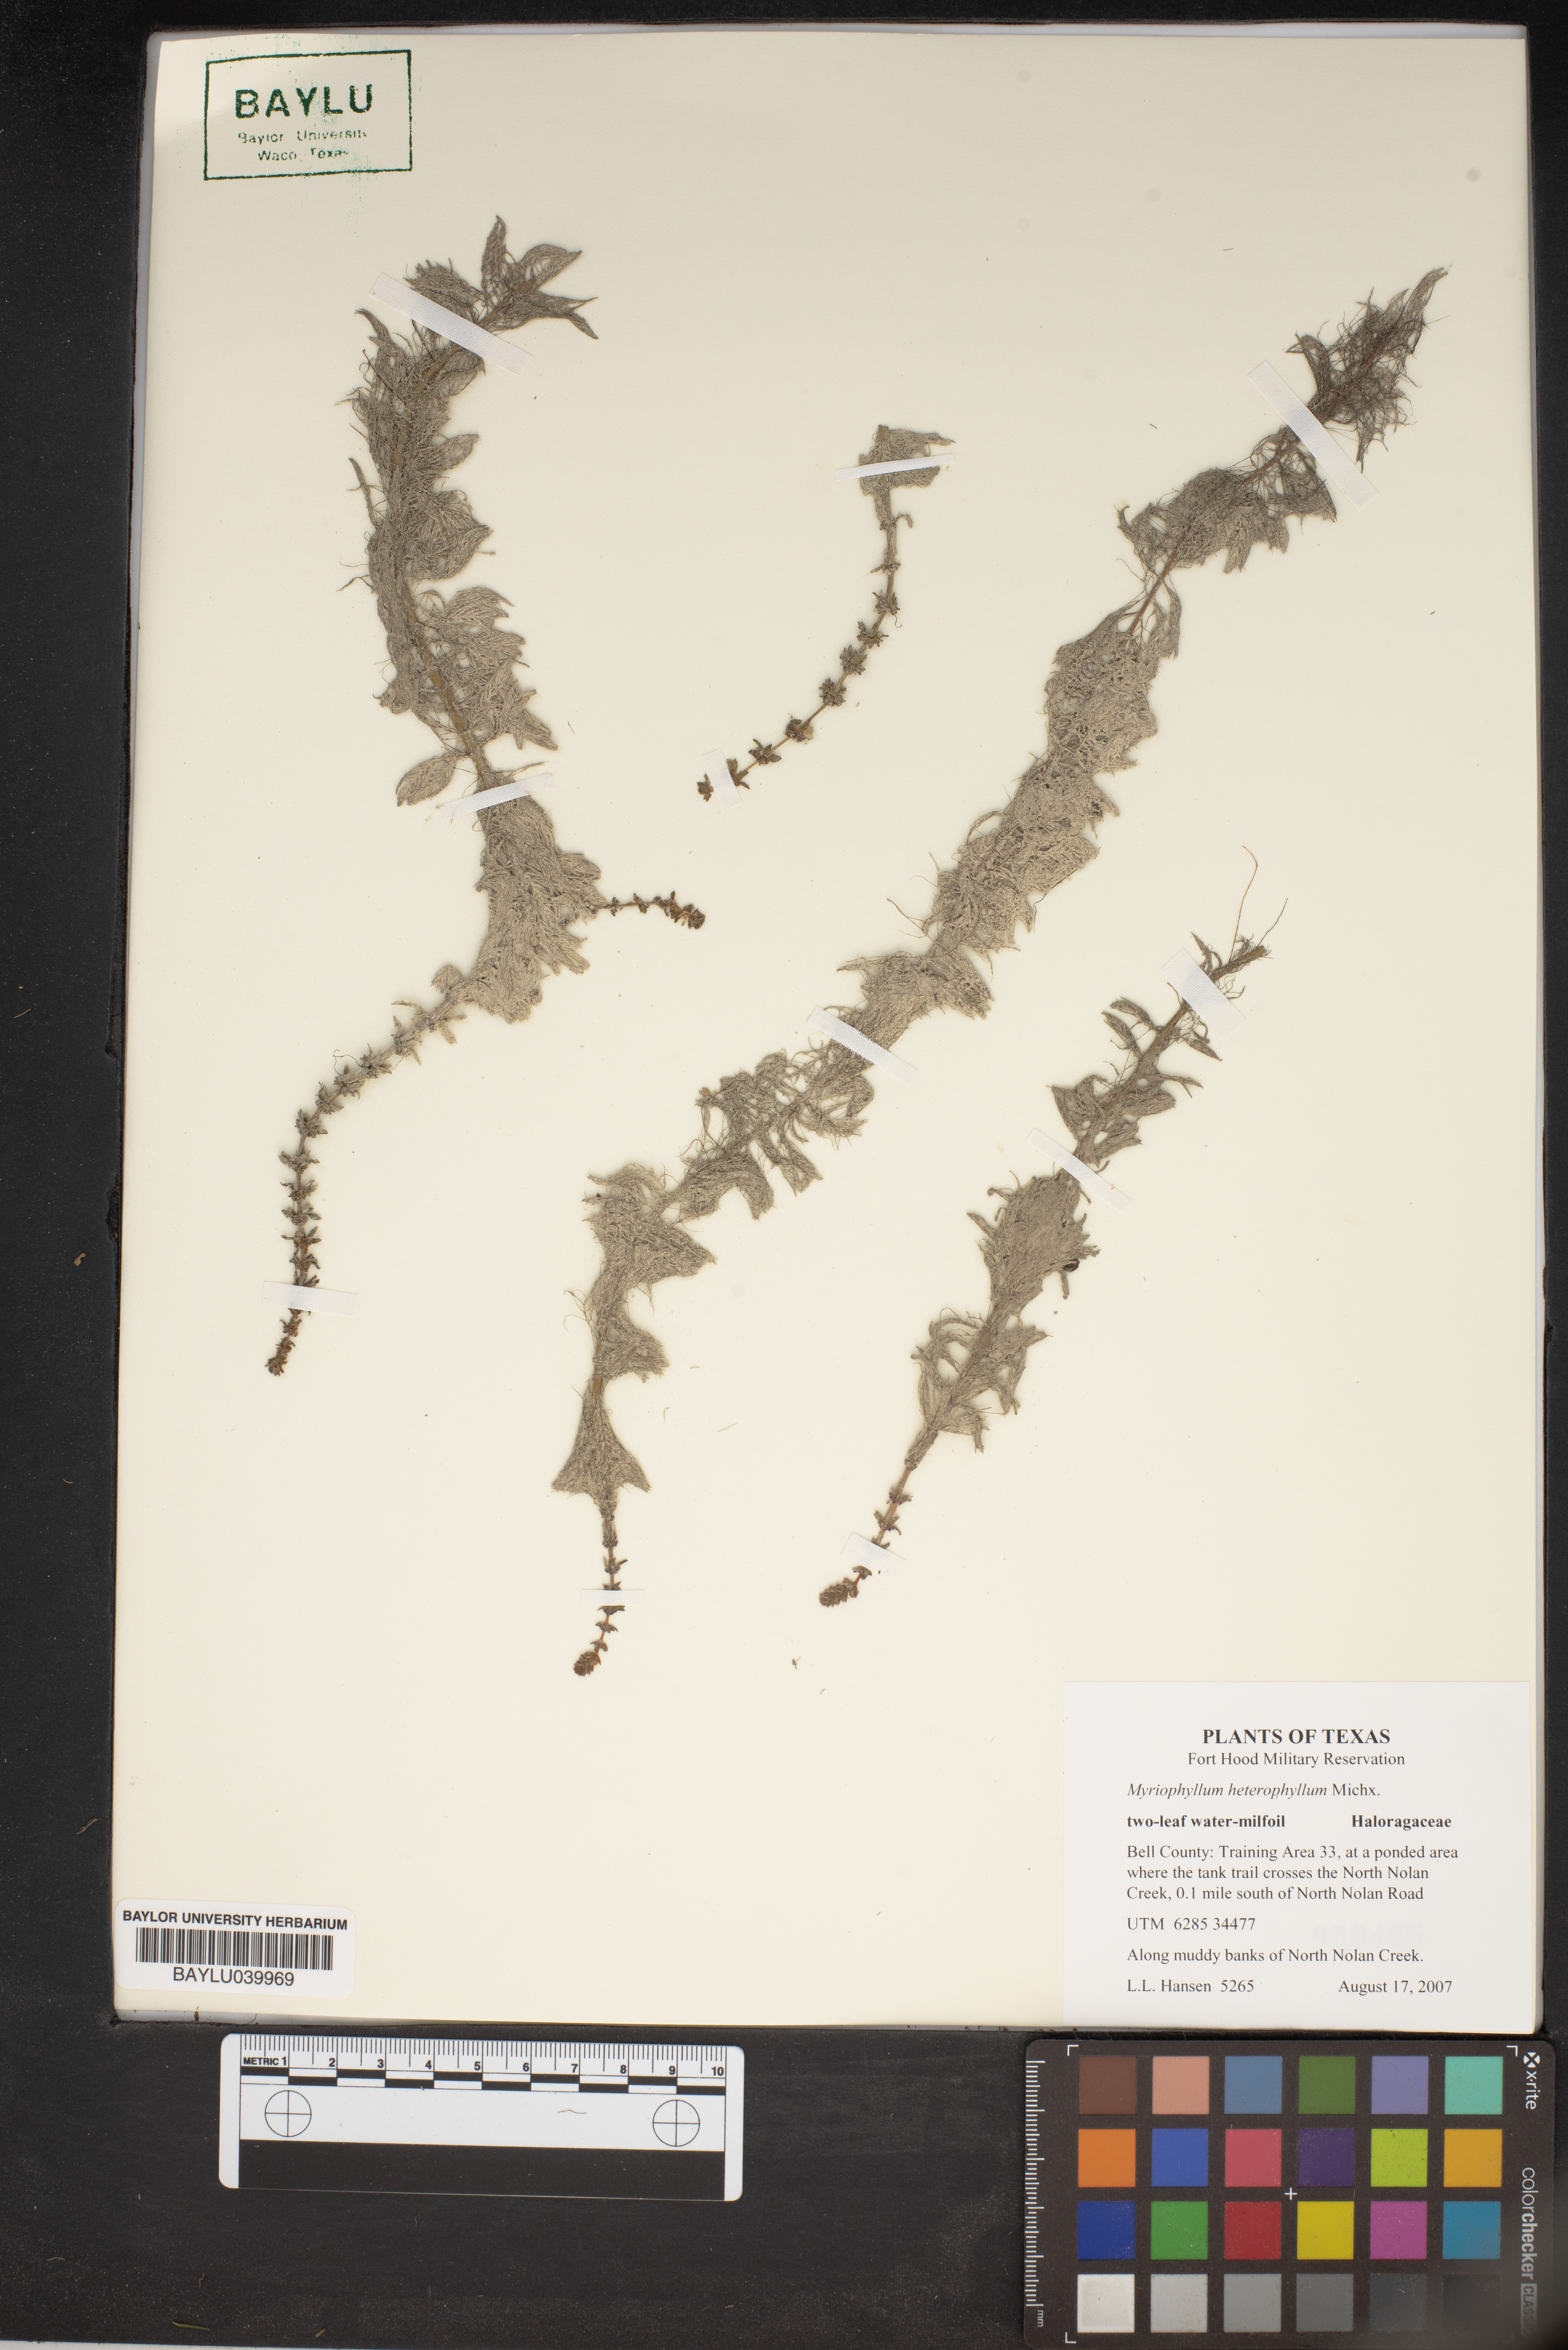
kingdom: Plantae
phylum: Tracheophyta
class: Magnoliopsida
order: Saxifragales
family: Haloragaceae
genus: Myriophyllum
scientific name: Myriophyllum heterophyllum
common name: Variable watermilfoil
